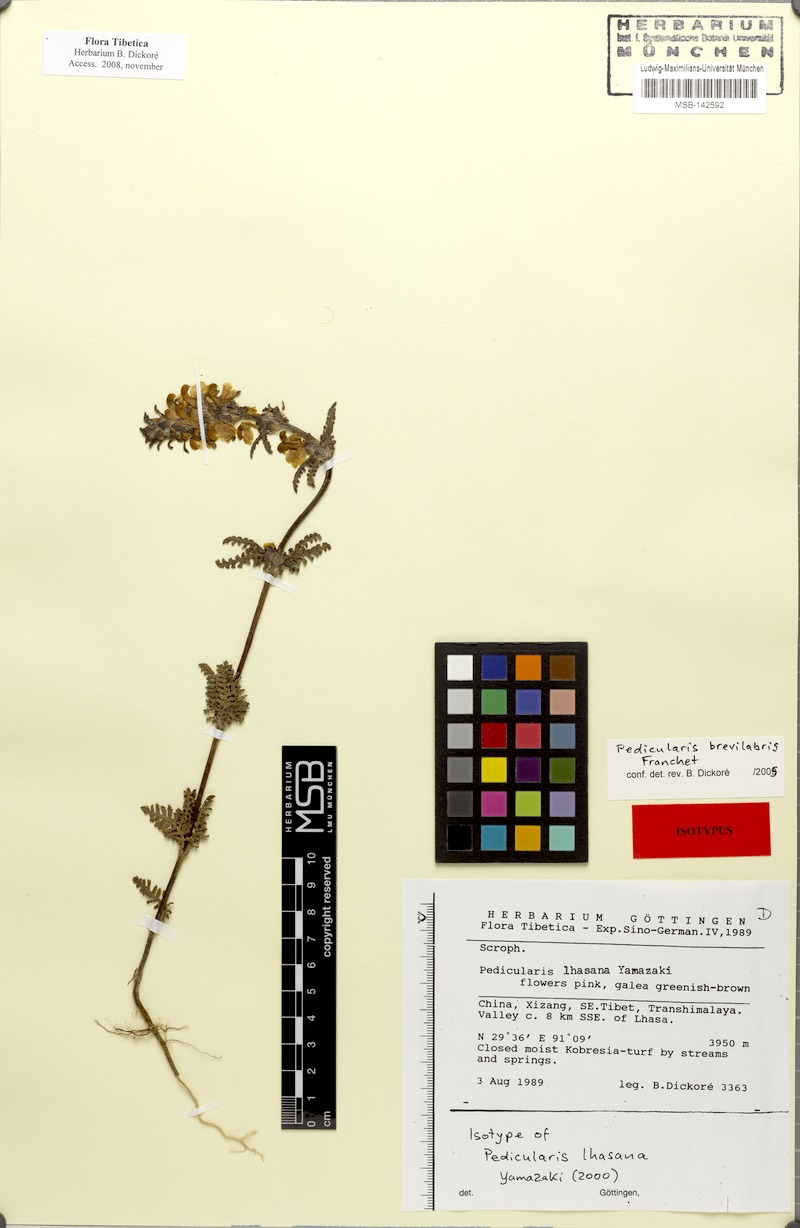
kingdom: Plantae
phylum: Tracheophyta
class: Magnoliopsida
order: Lamiales
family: Orobanchaceae
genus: Pedicularis
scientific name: Pedicularis brevilabris
